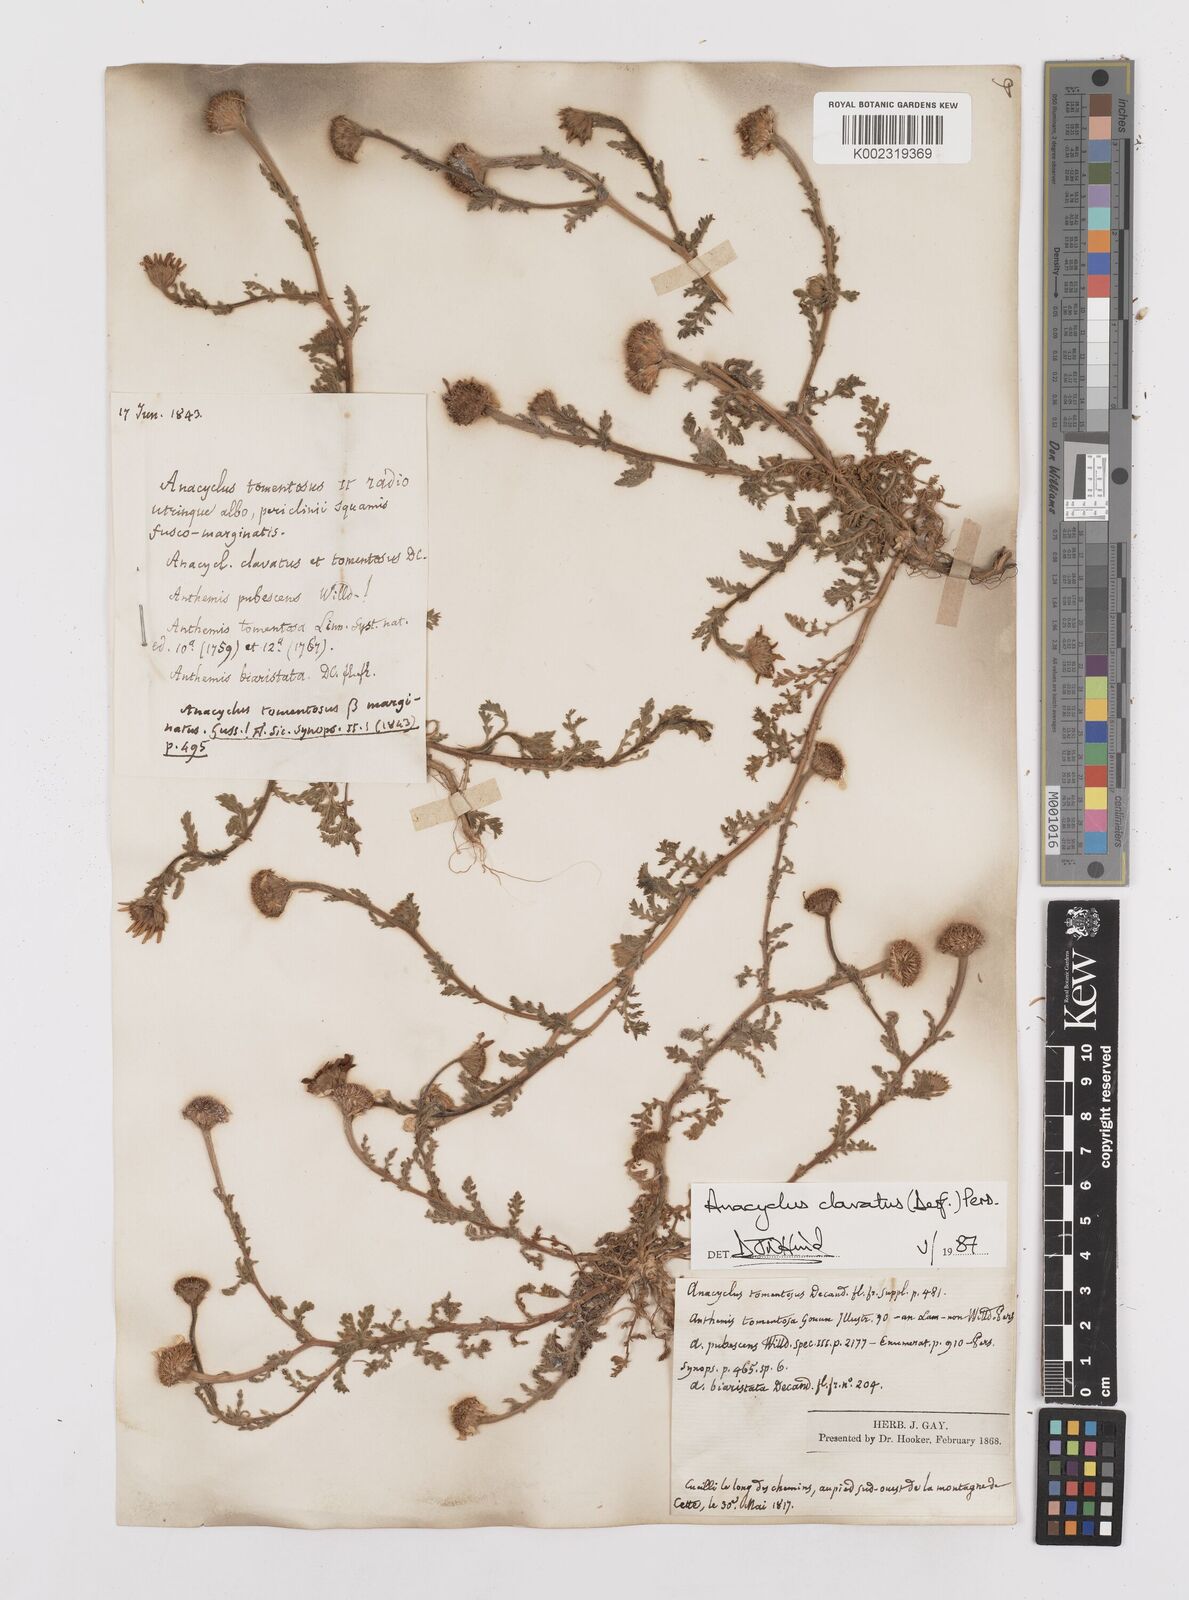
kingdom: Plantae
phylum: Tracheophyta
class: Magnoliopsida
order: Asterales
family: Asteraceae
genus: Anacyclus
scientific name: Anacyclus clavatus
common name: Whitebuttons
